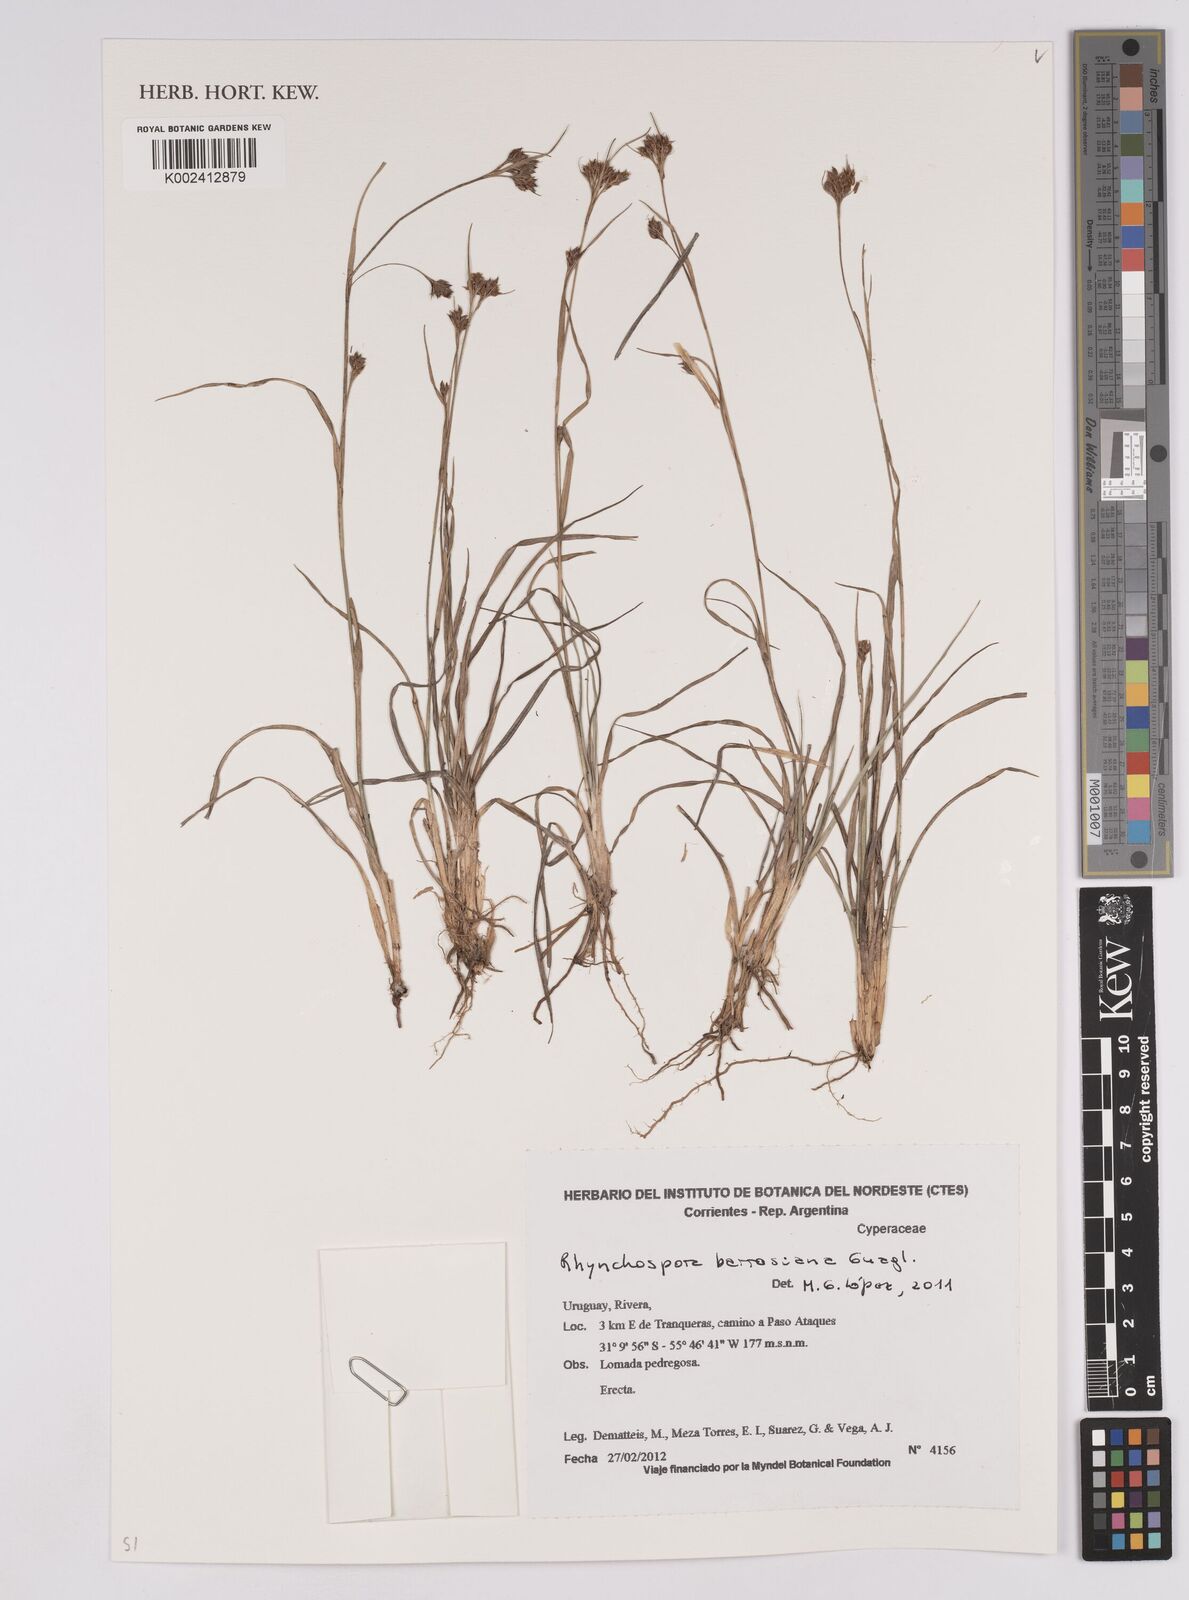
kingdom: Plantae
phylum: Tracheophyta
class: Liliopsida
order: Poales
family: Cyperaceae
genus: Rhynchospora
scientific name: Rhynchospora barrosiana
